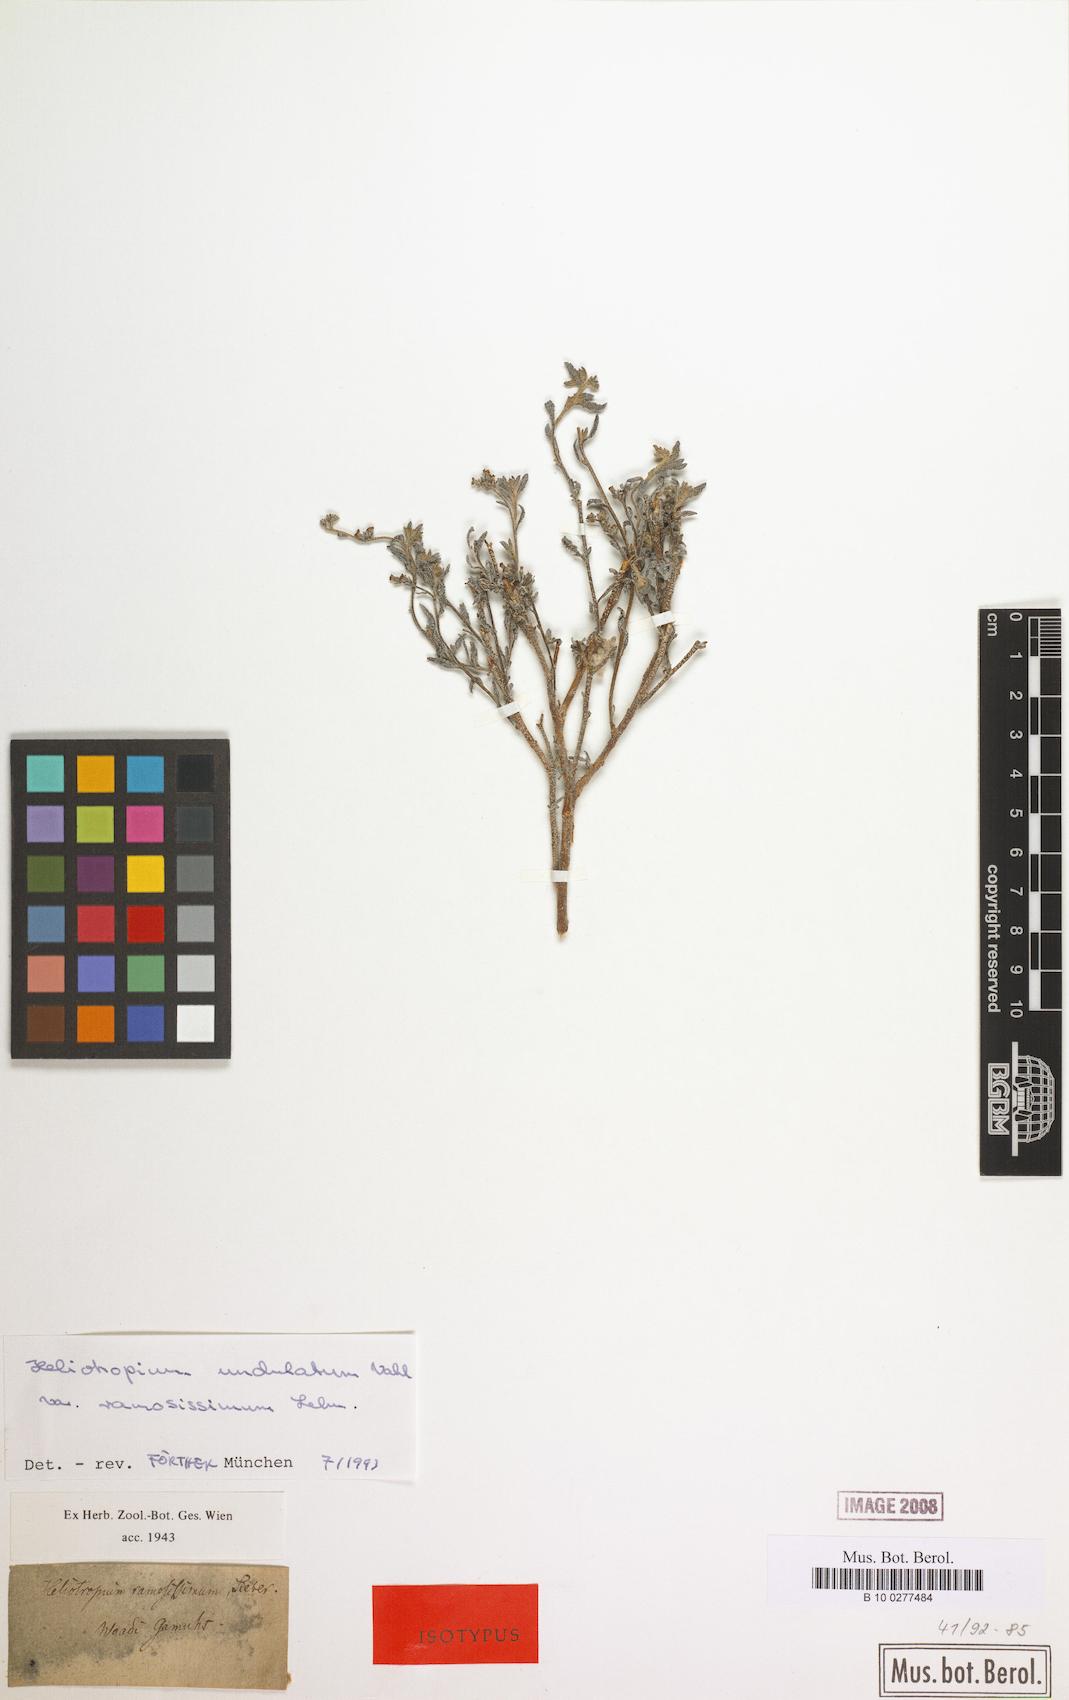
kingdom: Plantae
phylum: Tracheophyta
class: Magnoliopsida
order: Boraginales
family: Heliotropiaceae
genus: Heliotropium
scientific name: Heliotropium ramosissimum
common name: Wavy heliotrope
